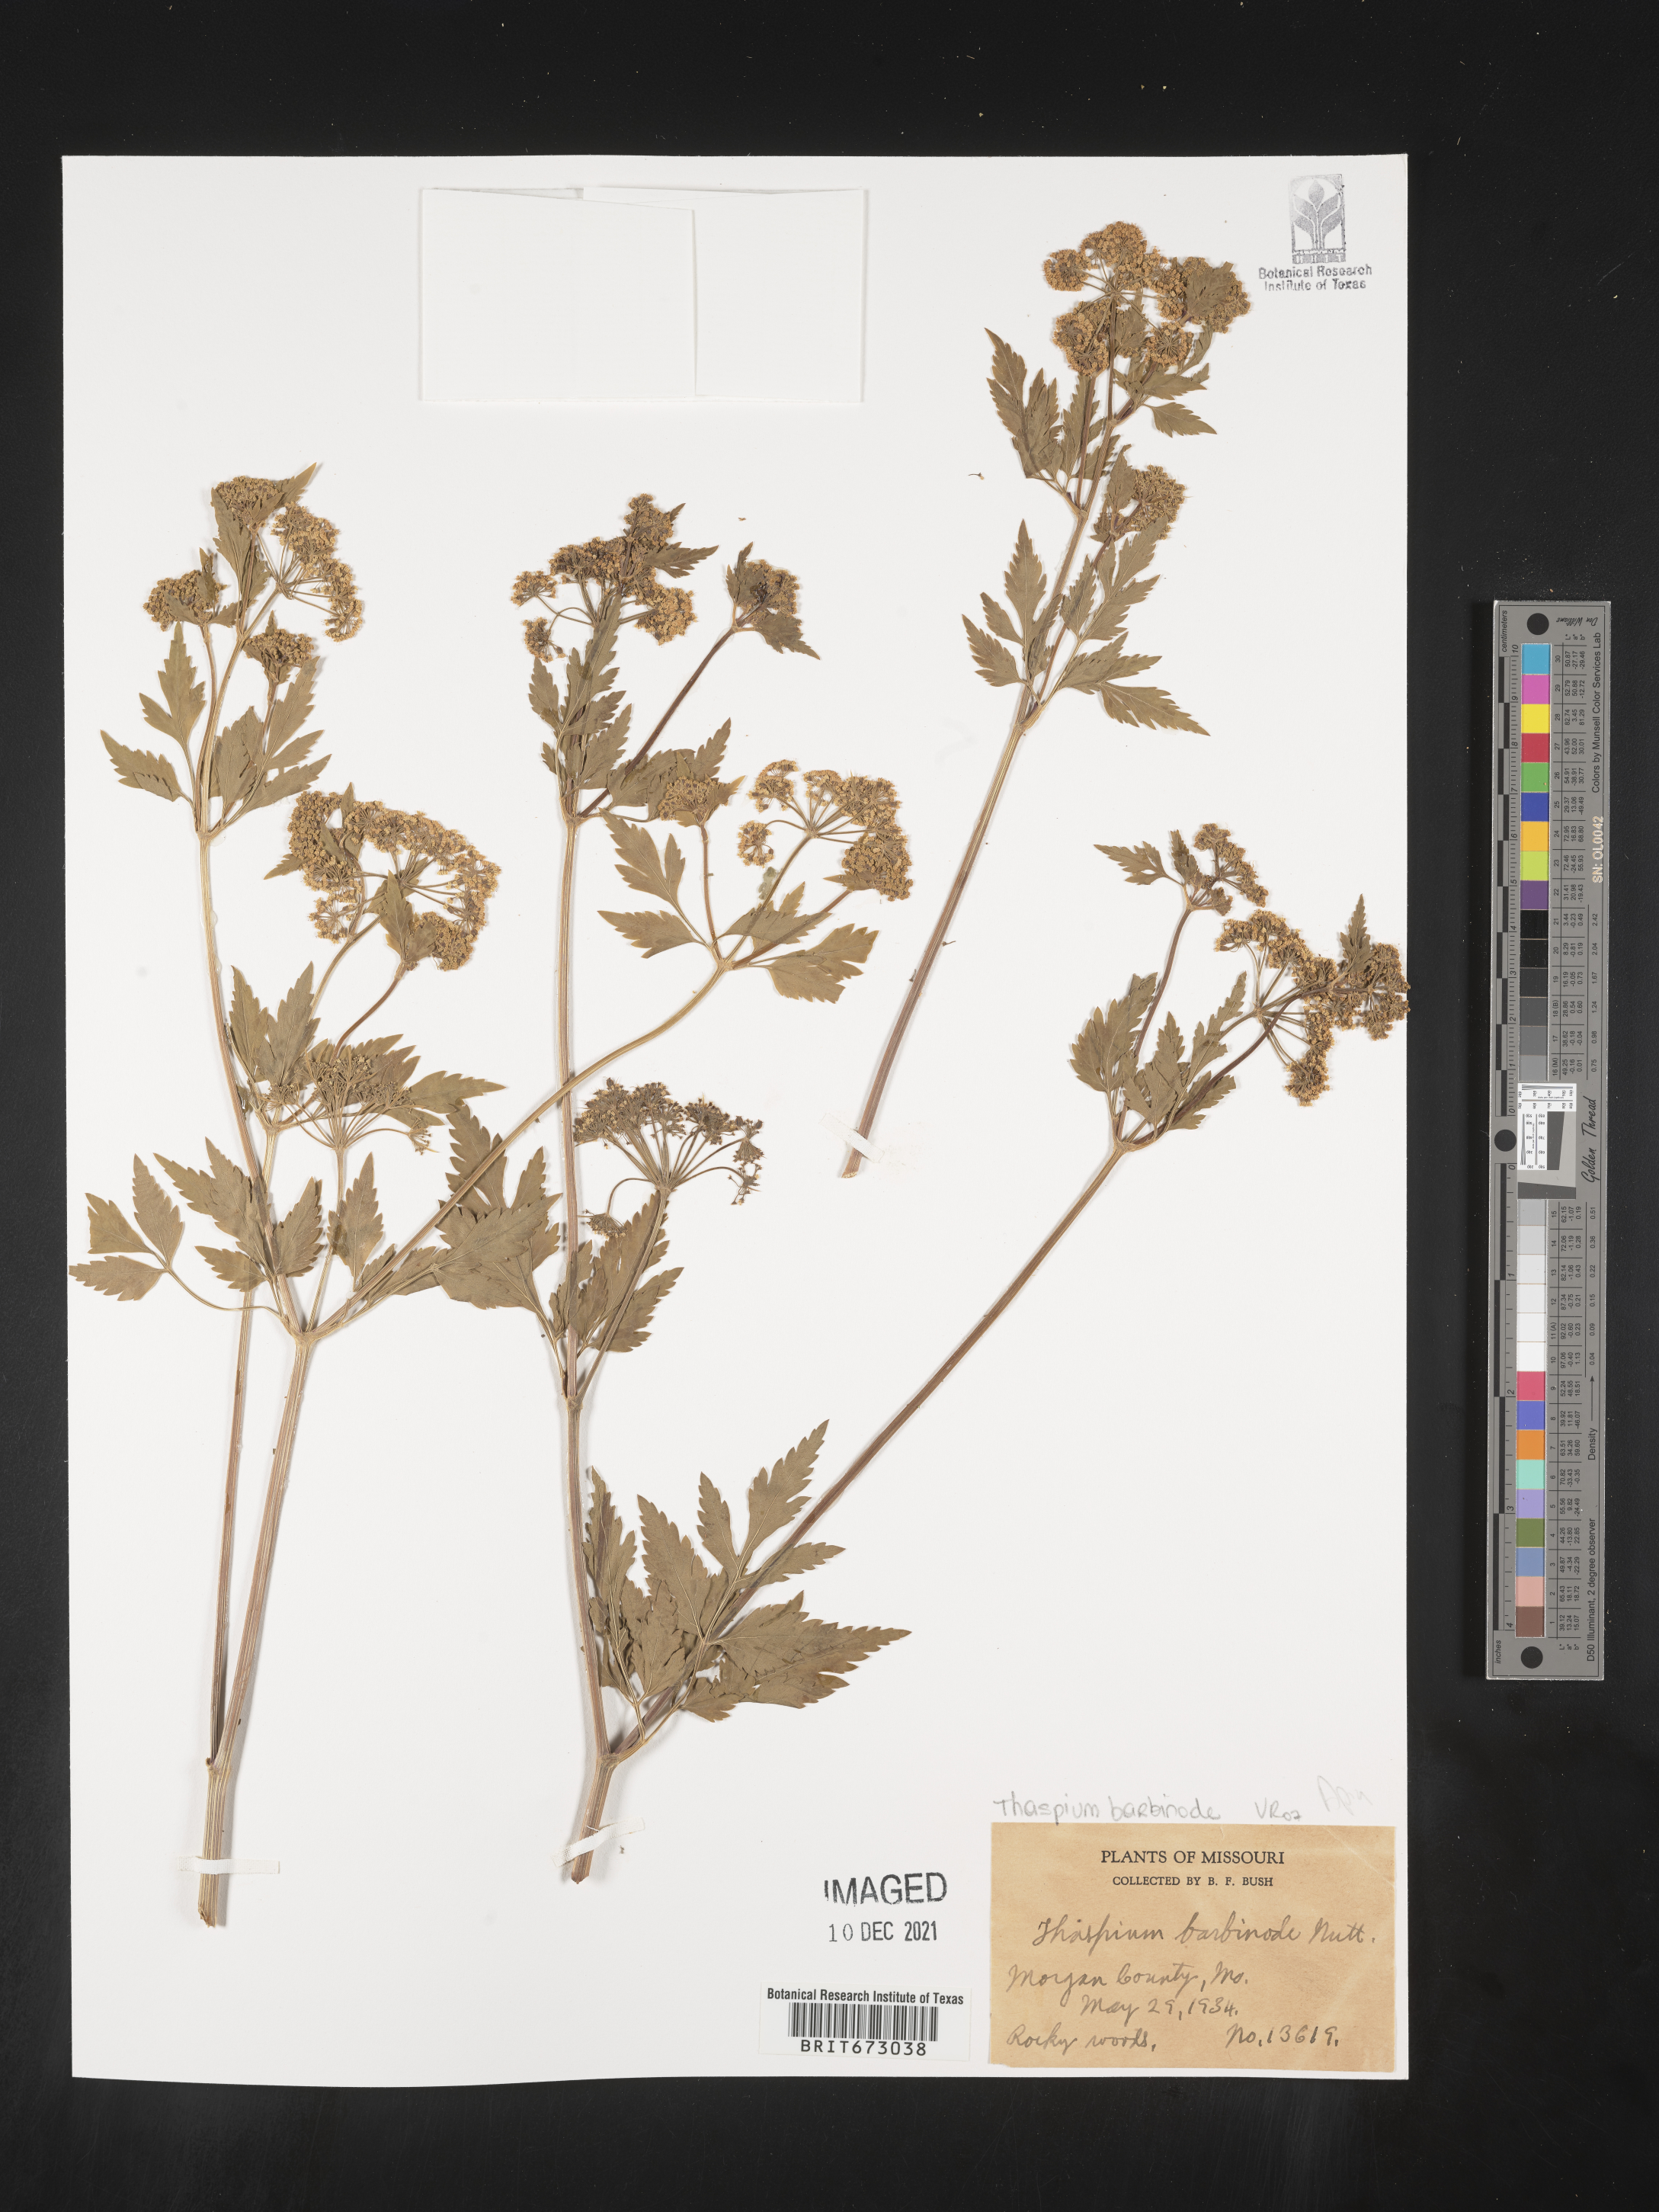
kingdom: Plantae
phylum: Tracheophyta
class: Magnoliopsida
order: Apiales
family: Apiaceae
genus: Thaspium
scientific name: Thaspium barbinode
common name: Bearded meadow-parsnip
